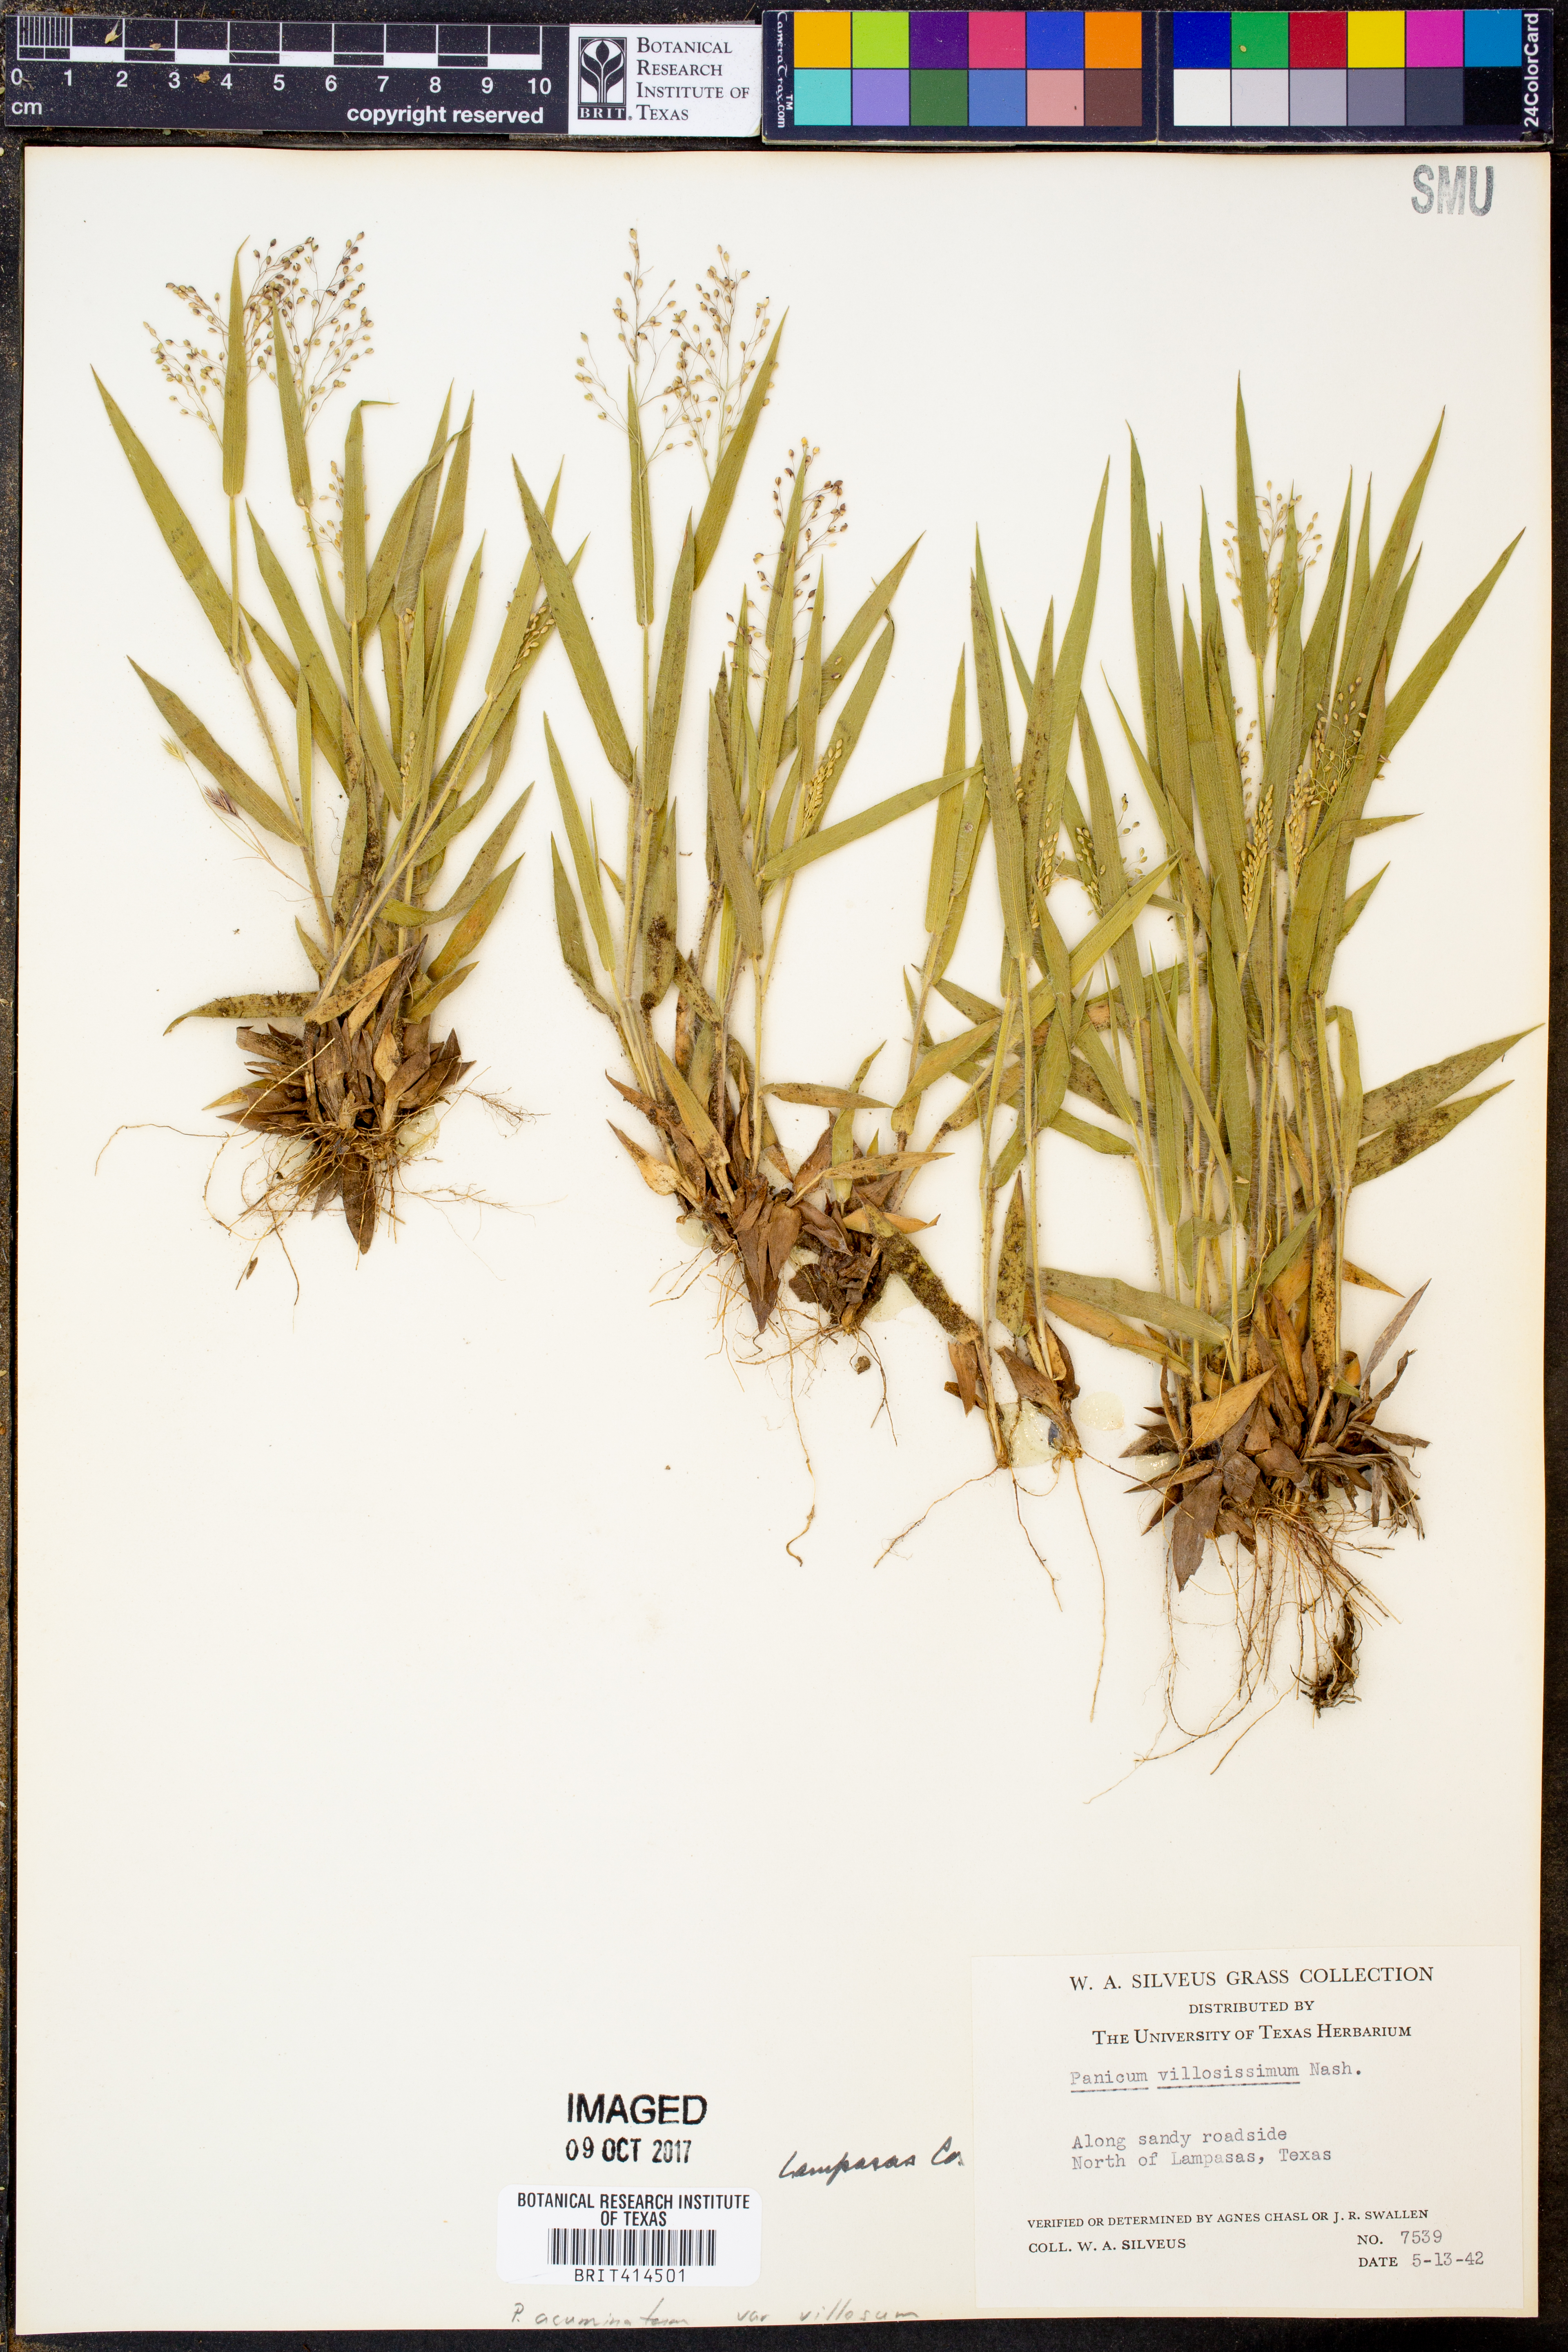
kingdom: Plantae
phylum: Tracheophyta
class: Liliopsida
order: Poales
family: Poaceae
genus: Dichanthelium
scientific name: Dichanthelium acuminatum
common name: Hairy panic grass
